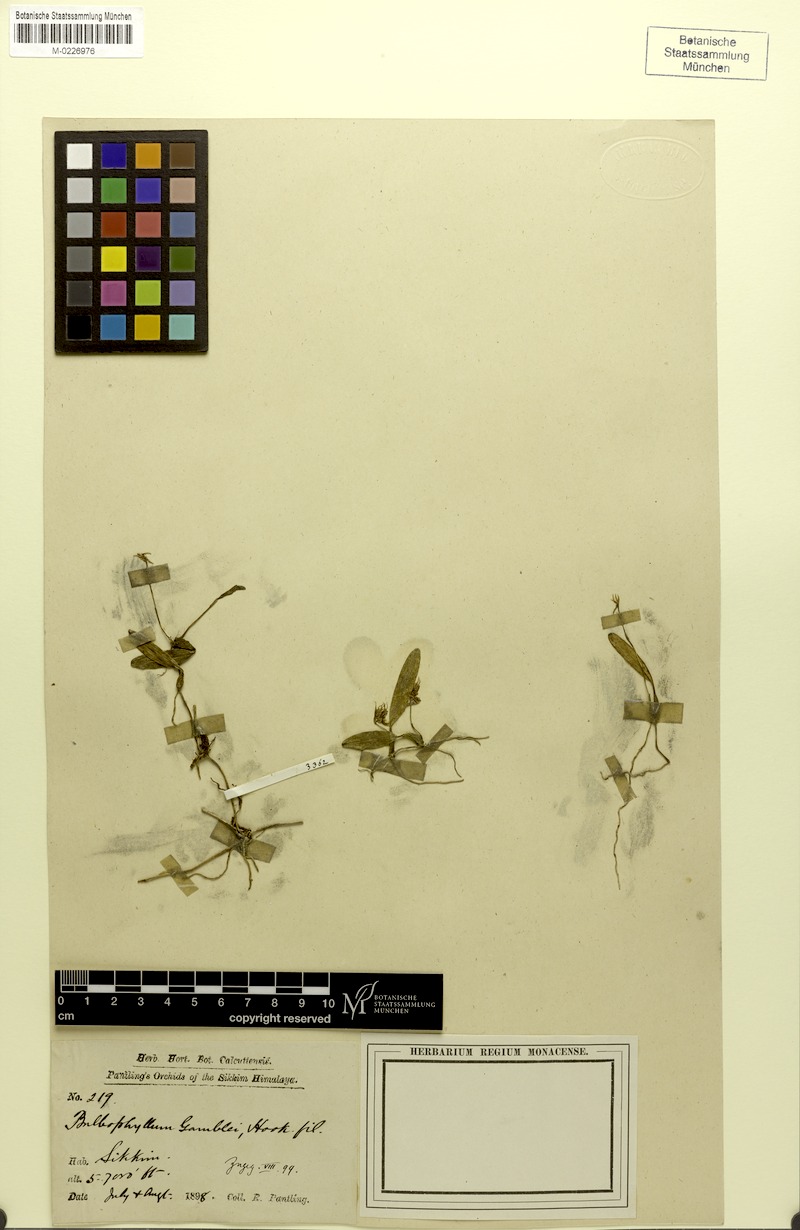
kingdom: Plantae
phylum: Tracheophyta
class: Liliopsida
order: Asparagales
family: Orchidaceae
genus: Bulbophyllum
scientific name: Bulbophyllum gamblei
